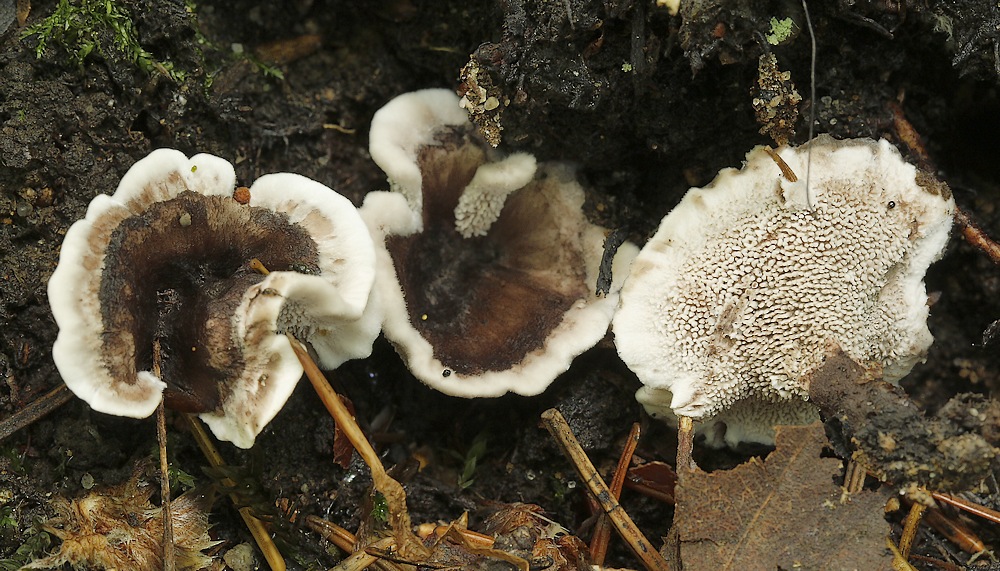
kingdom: Fungi
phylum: Basidiomycota
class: Agaricomycetes
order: Thelephorales
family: Thelephoraceae
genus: Phellodon
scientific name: Phellodon tomentosus
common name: vellugtende duftpigsvamp
